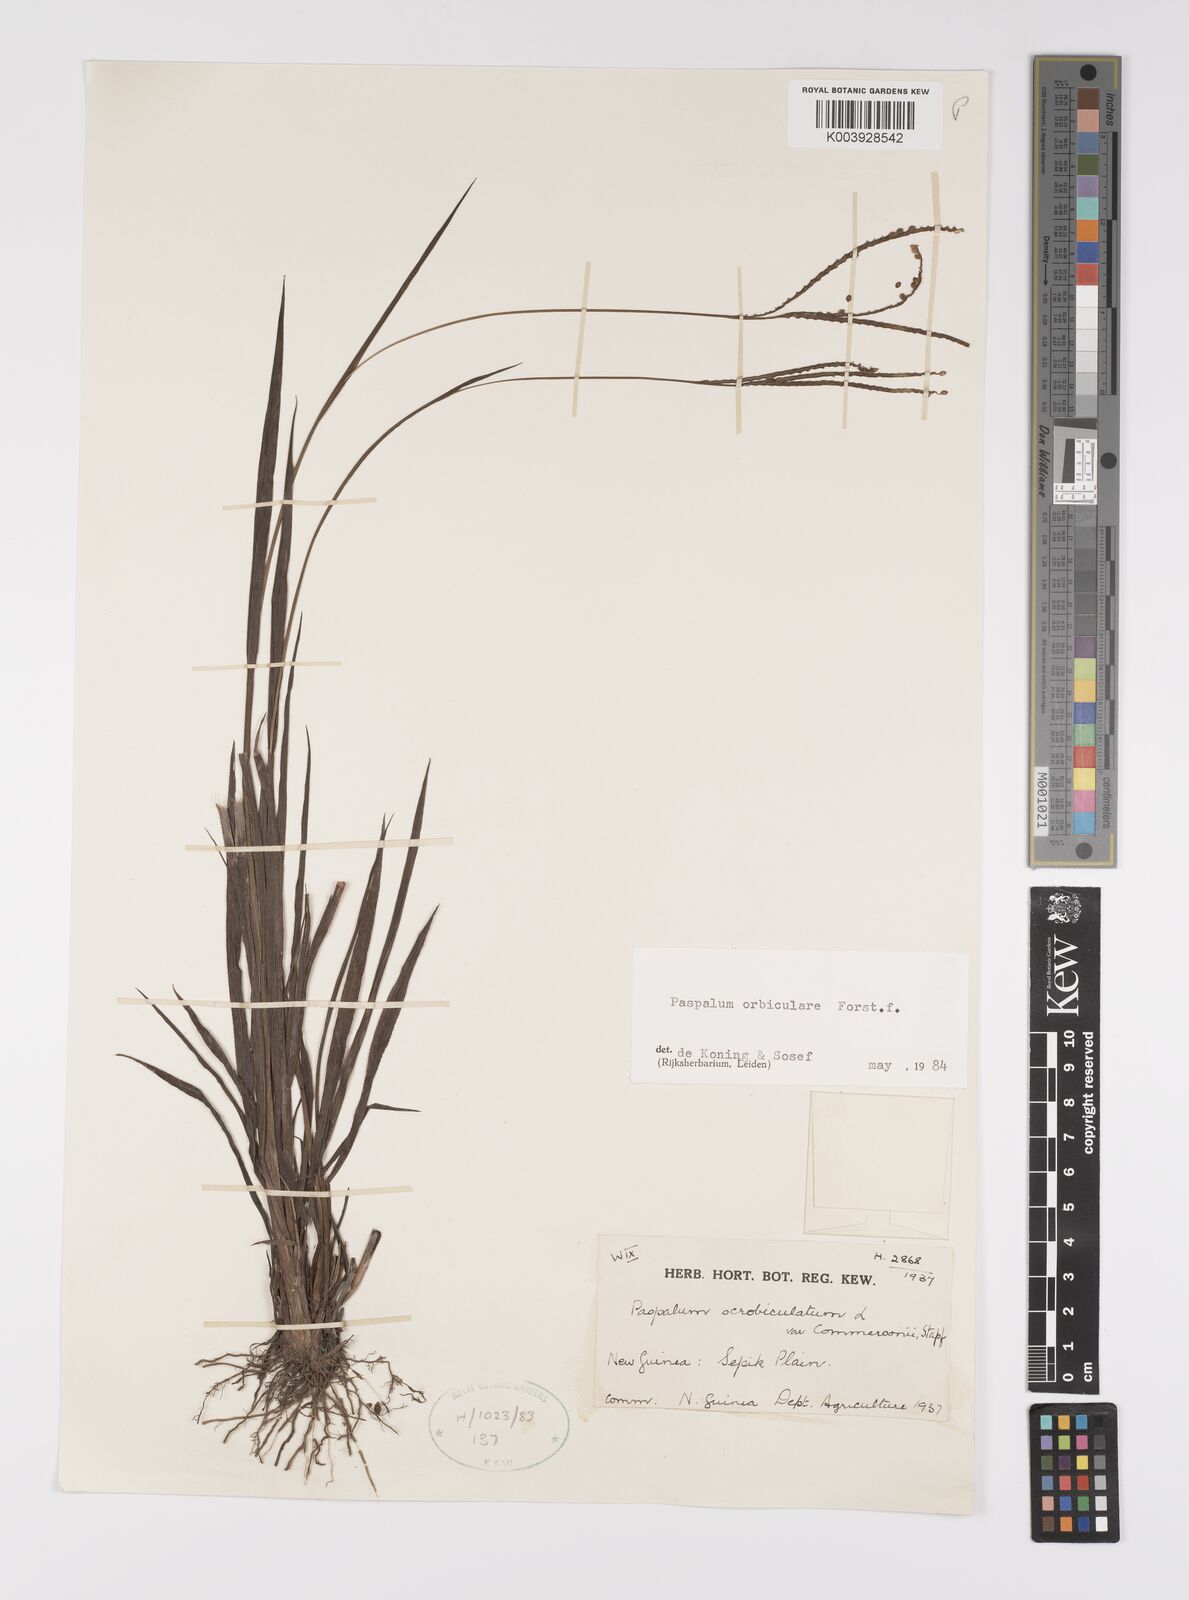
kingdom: Plantae
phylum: Tracheophyta
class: Liliopsida
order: Poales
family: Poaceae
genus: Paspalum
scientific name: Paspalum scrobiculatum
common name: Kodo millet
